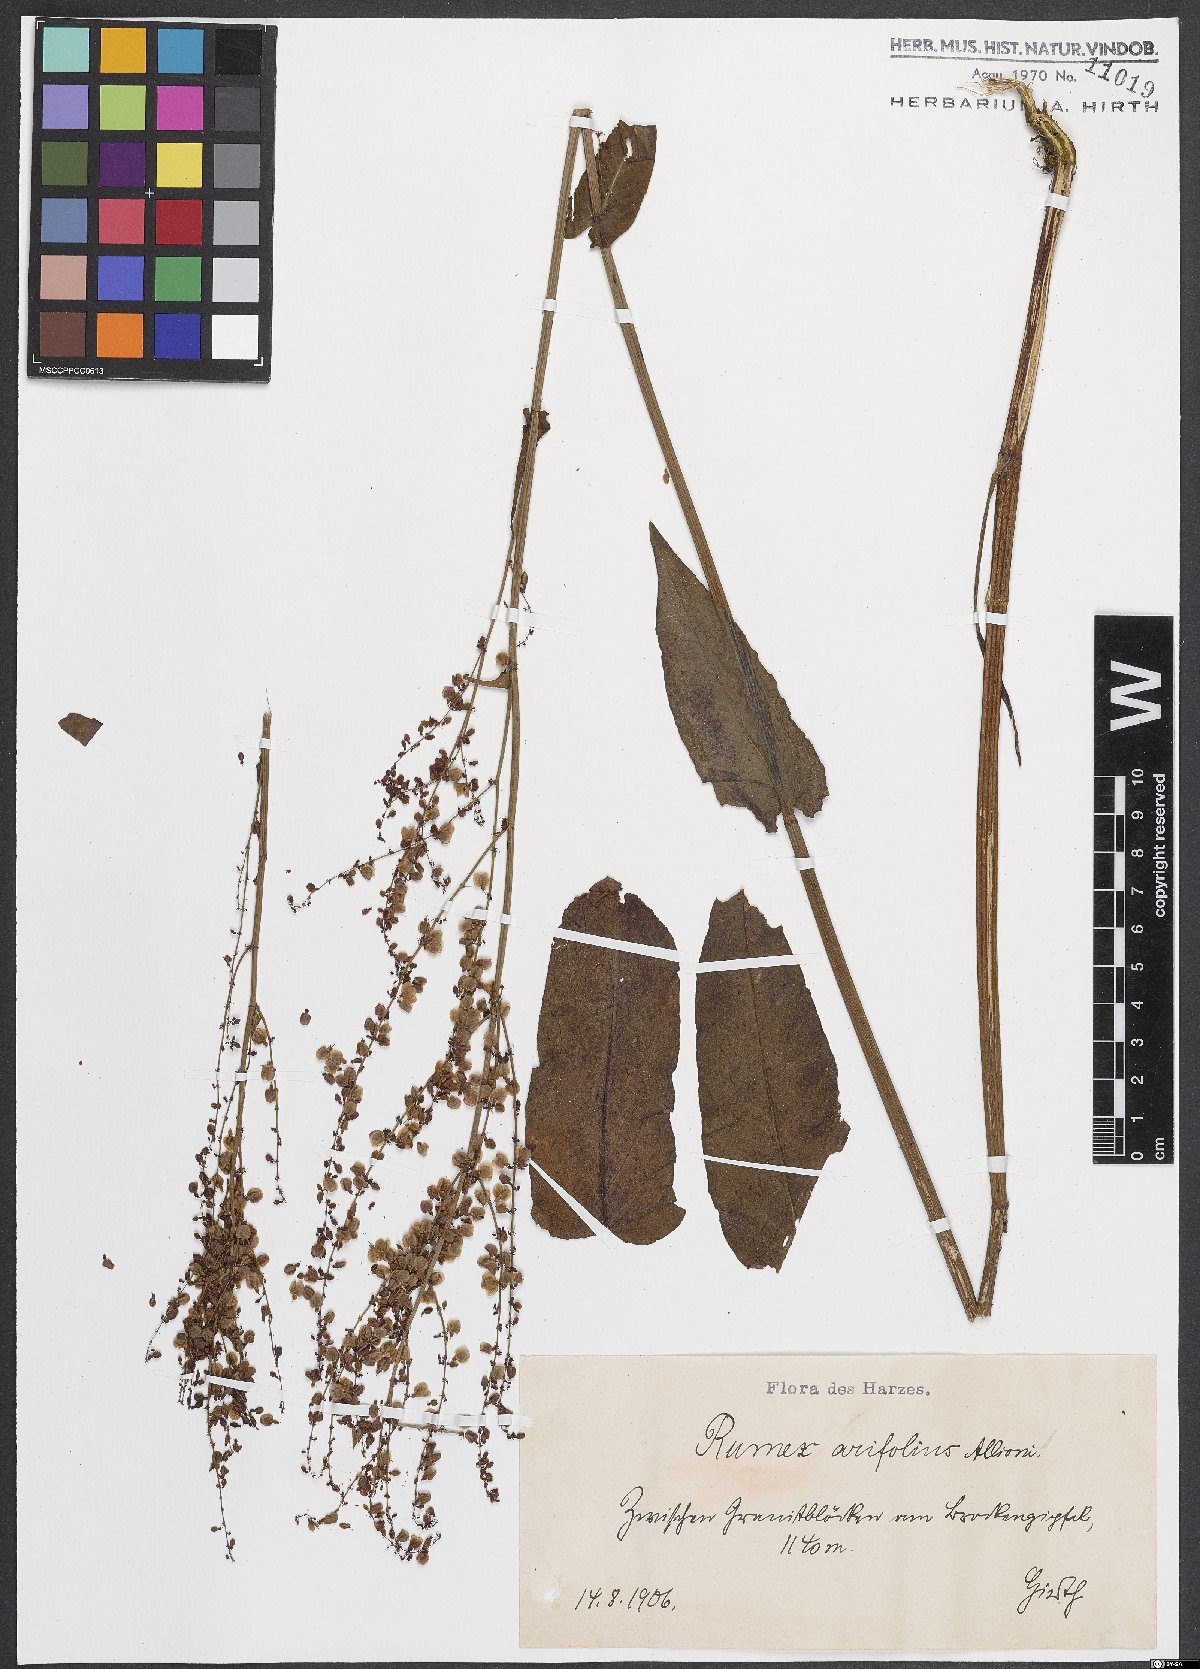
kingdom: Plantae
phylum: Tracheophyta
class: Magnoliopsida
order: Caryophyllales
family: Polygonaceae
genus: Rumex
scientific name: Rumex arifolius
